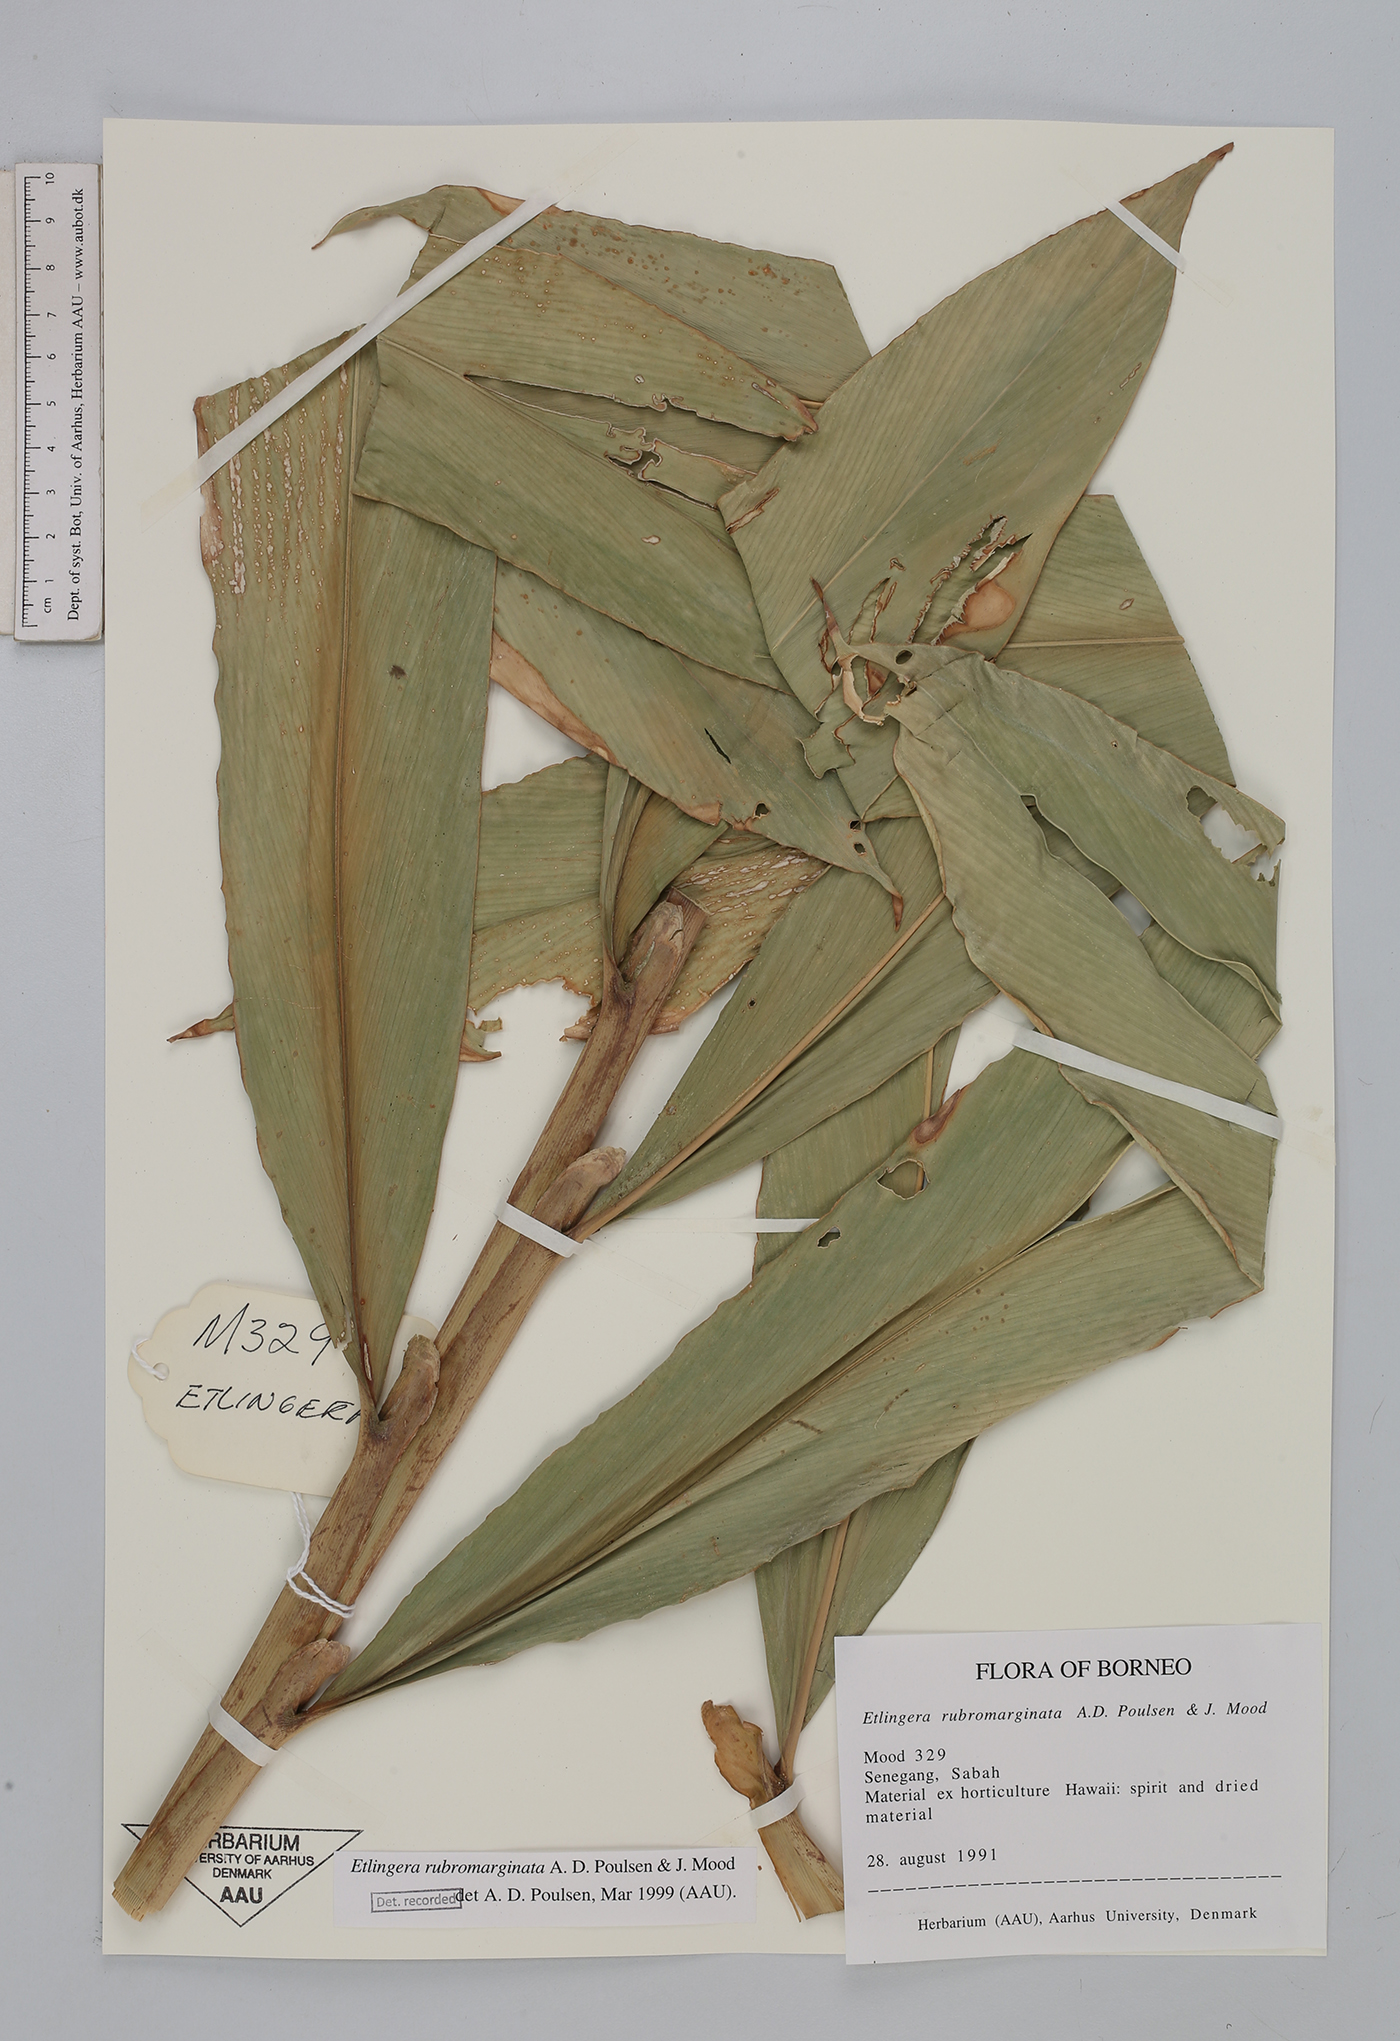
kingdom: Plantae
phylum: Tracheophyta
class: Liliopsida
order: Zingiberales
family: Zingiberaceae
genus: Etlingera
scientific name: Etlingera rubromarginata
